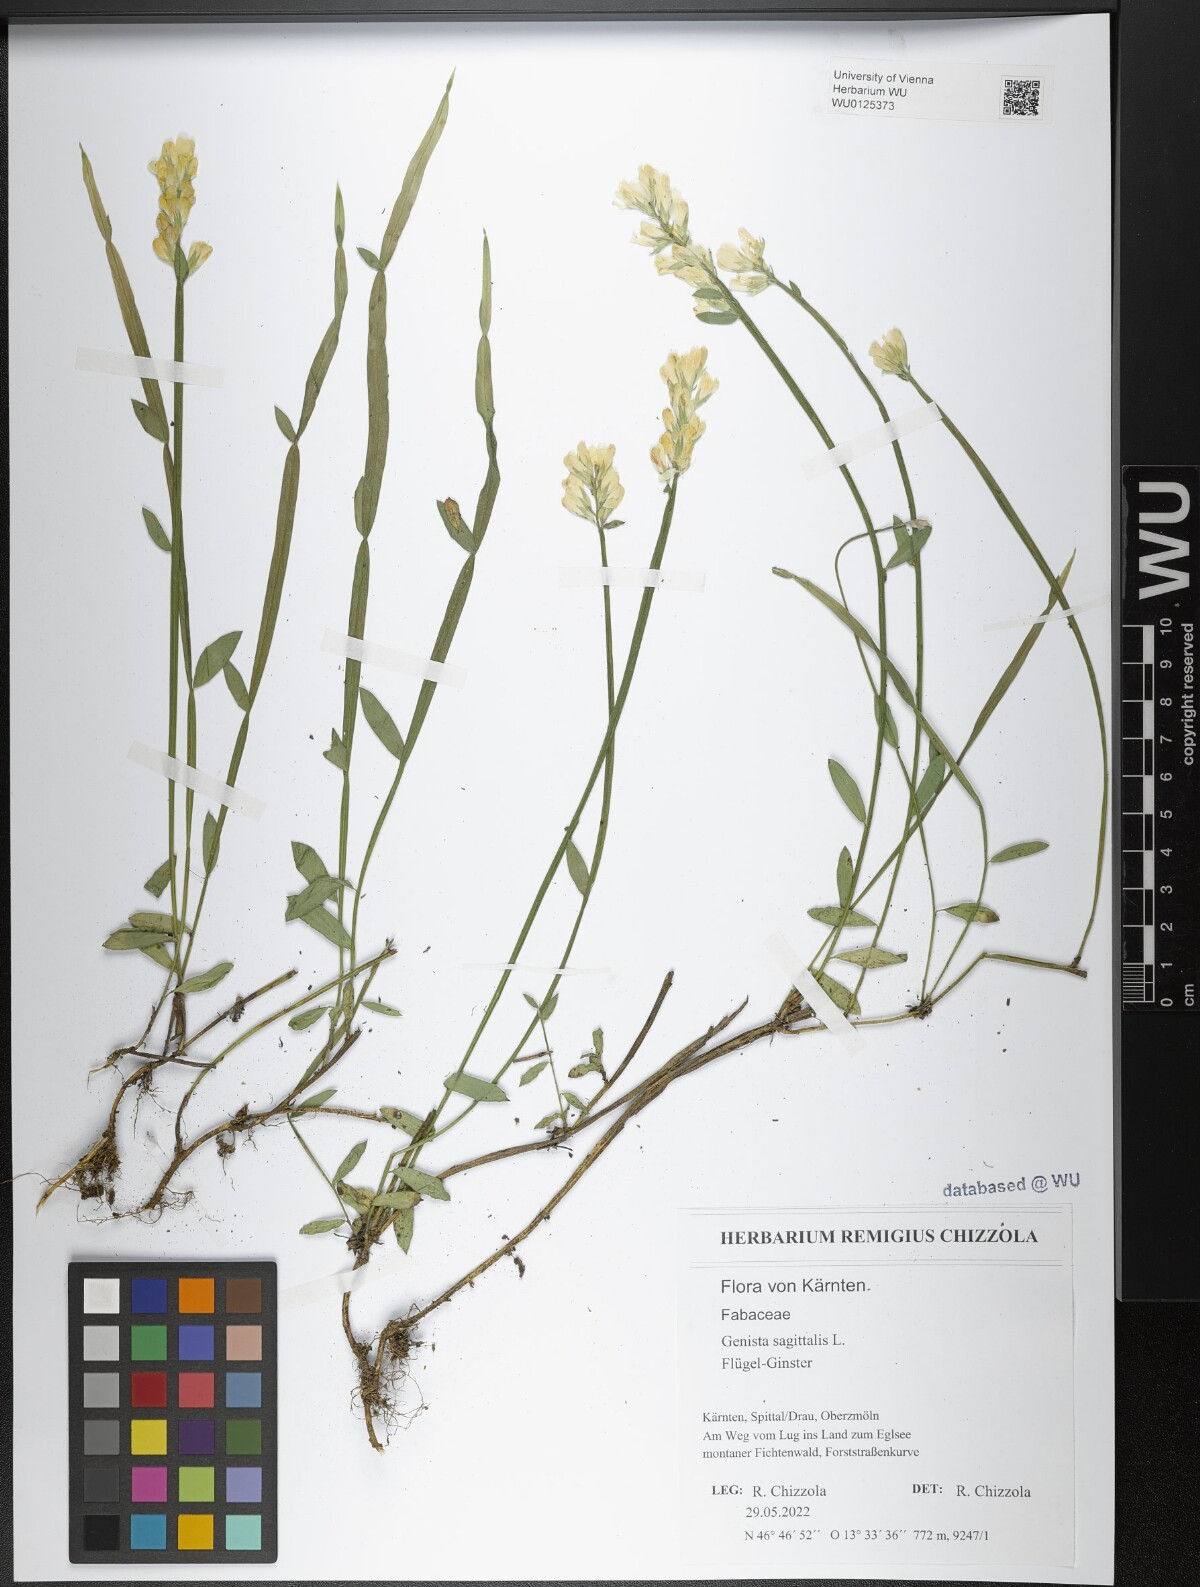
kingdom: Plantae
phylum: Tracheophyta
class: Magnoliopsida
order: Fabales
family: Fabaceae
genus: Genista
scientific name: Genista sagittalis
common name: Winged greenweed
